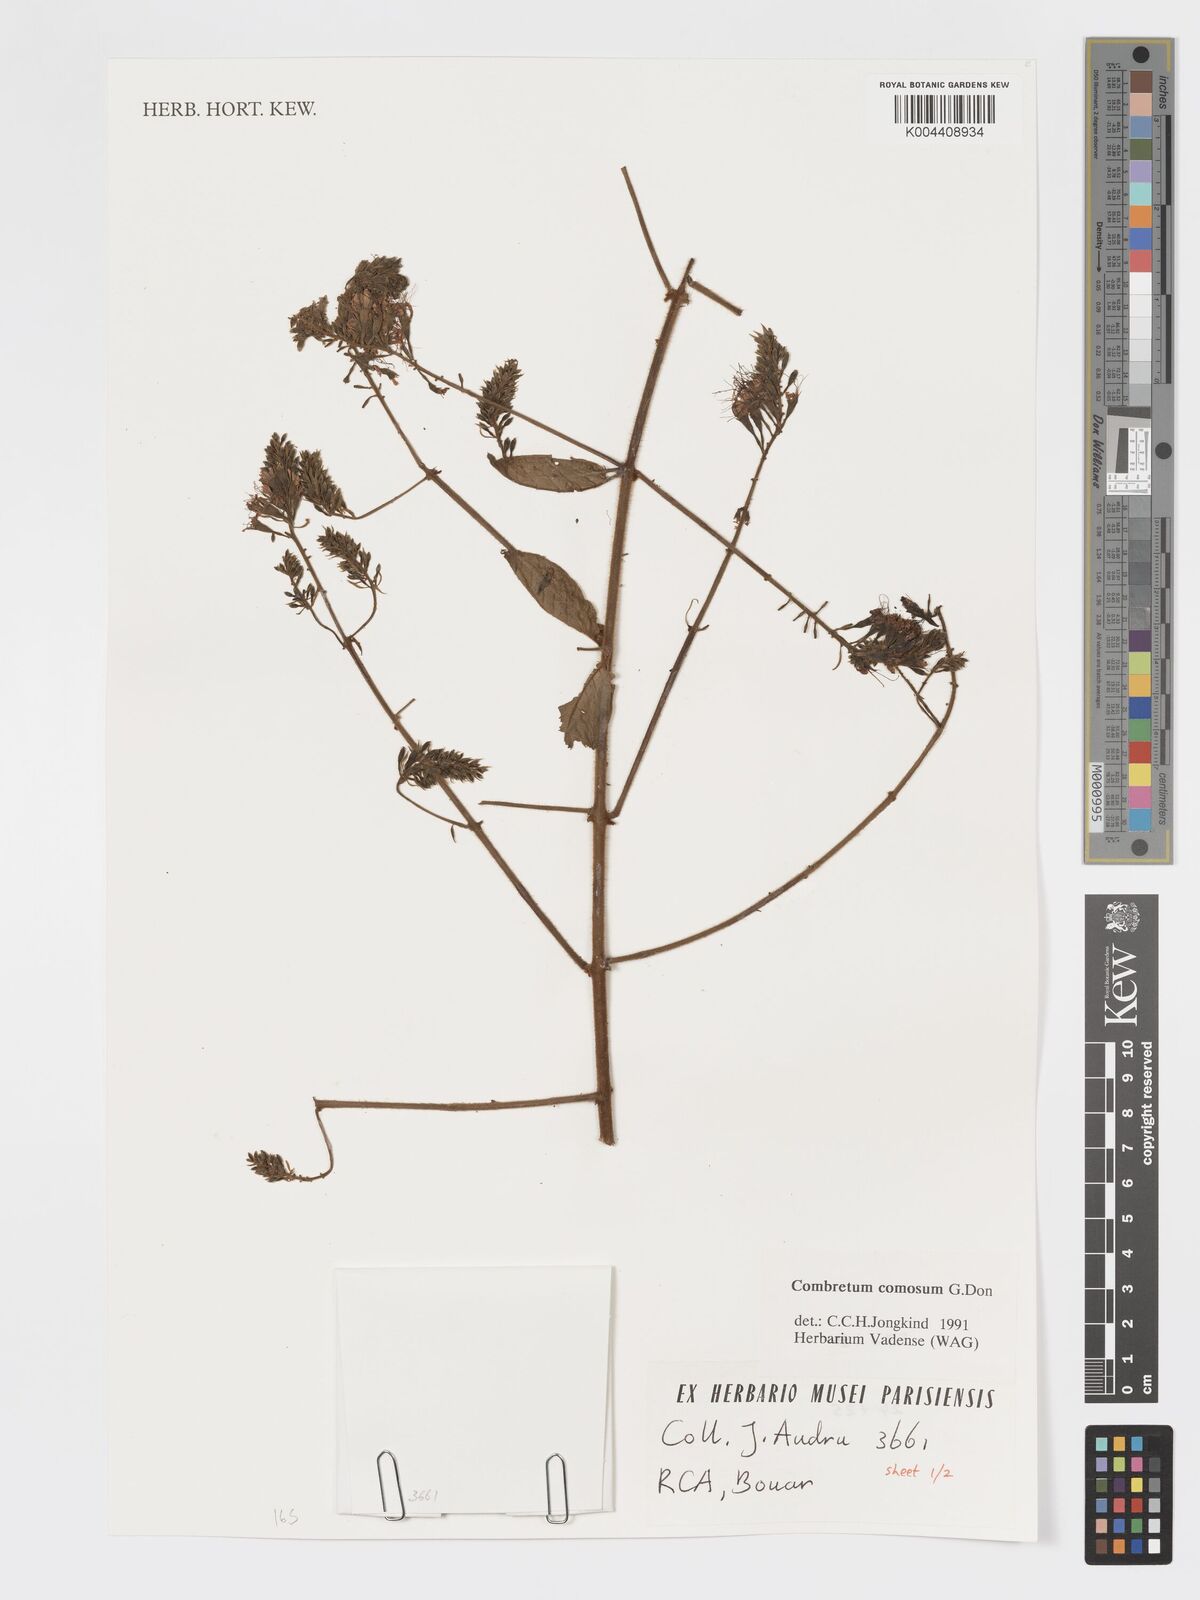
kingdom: Plantae
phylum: Tracheophyta
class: Magnoliopsida
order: Myrtales
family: Combretaceae
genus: Combretum
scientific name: Combretum comosum
